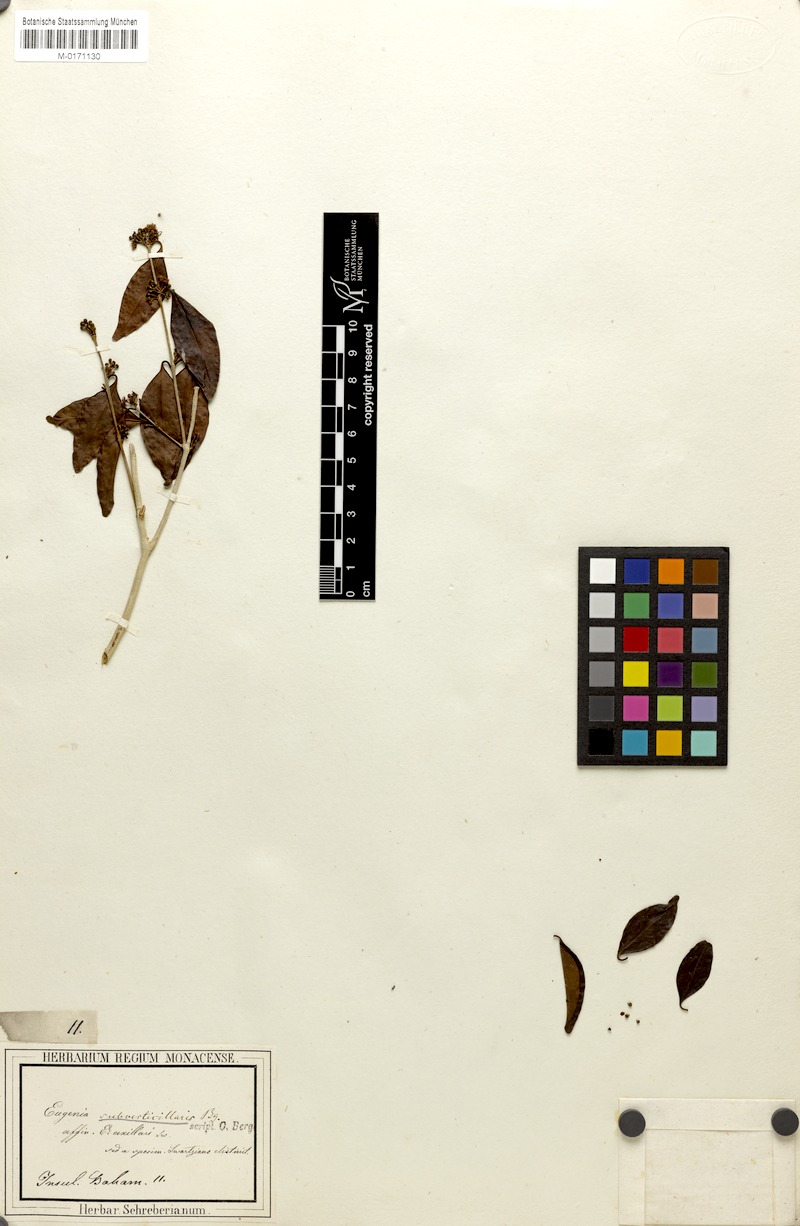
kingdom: Plantae
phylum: Tracheophyta
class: Magnoliopsida
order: Myrtales
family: Myrtaceae
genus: Eugenia
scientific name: Eugenia axillaris
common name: Choaky berry
